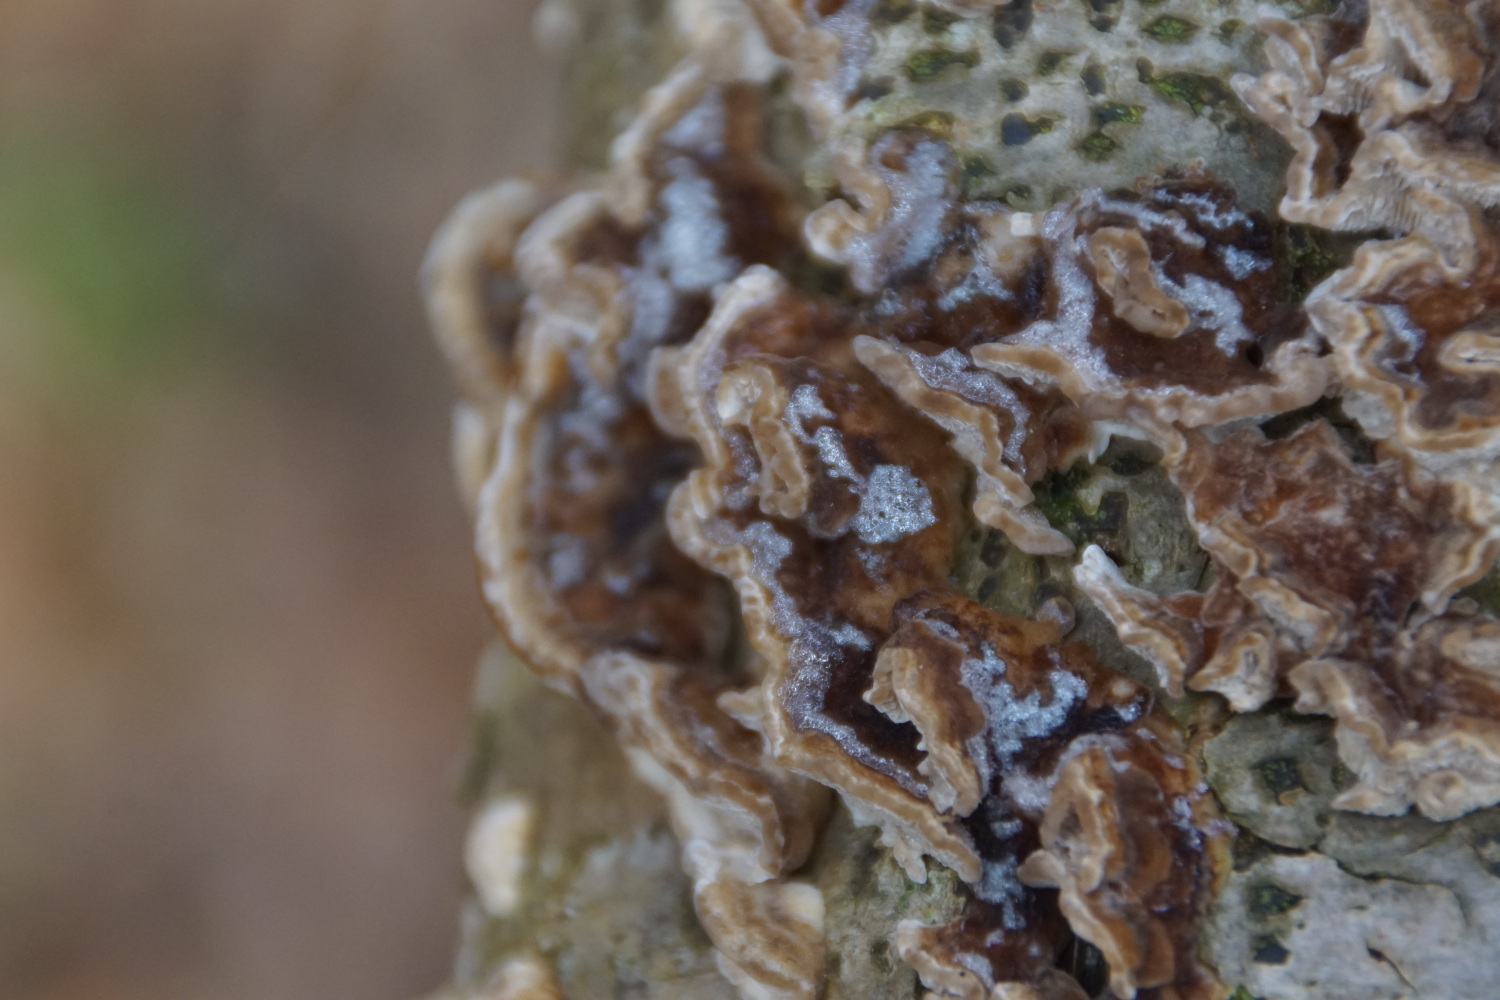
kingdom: Fungi
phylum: Basidiomycota
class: Agaricomycetes
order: Polyporales
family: Polyporaceae
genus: Trametes
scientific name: Trametes ochracea
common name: bæltet læderporesvamp
